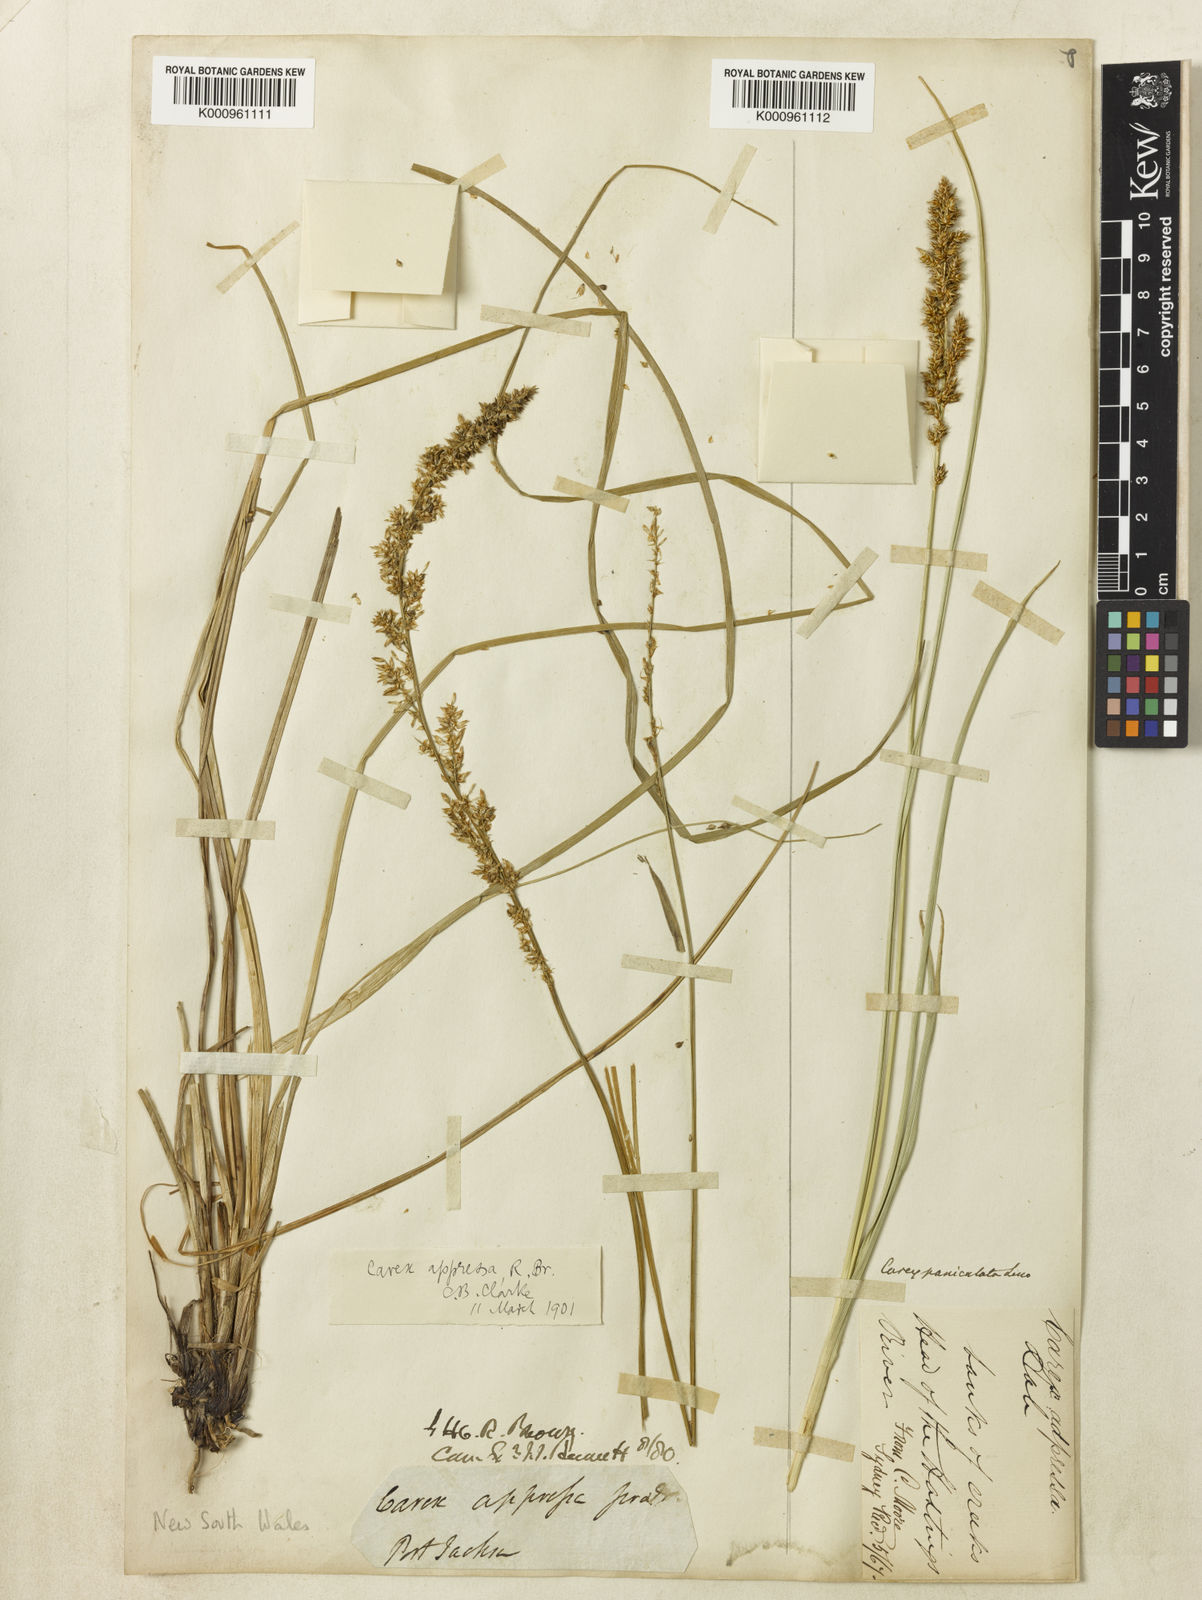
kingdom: Plantae
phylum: Tracheophyta
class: Liliopsida
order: Poales
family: Cyperaceae
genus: Carex
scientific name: Carex appressa
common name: Tussock sedge
